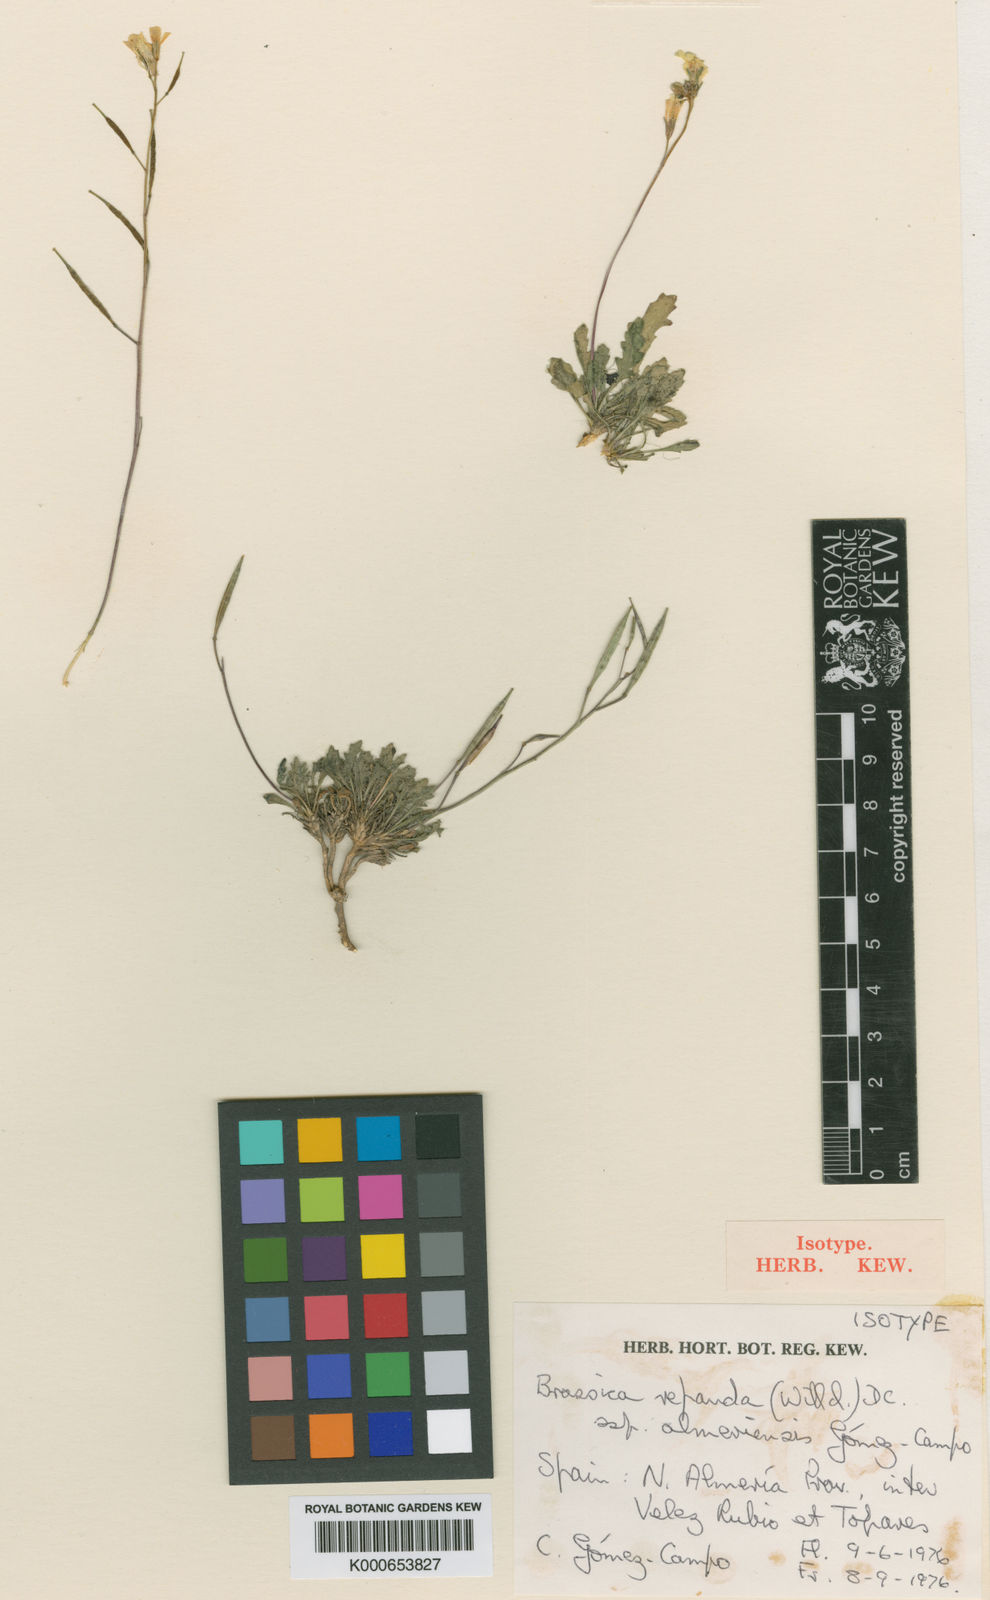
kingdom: Plantae
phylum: Tracheophyta
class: Magnoliopsida
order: Brassicales
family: Brassicaceae
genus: Brassica
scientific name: Brassica repanda
